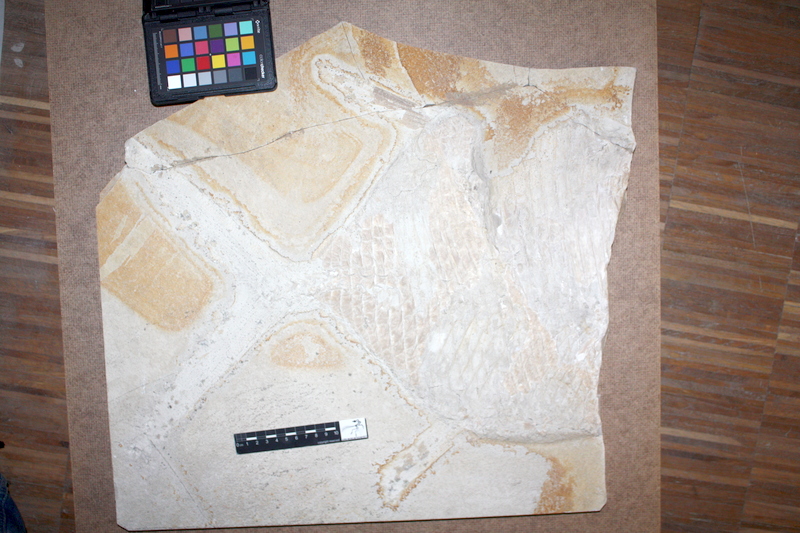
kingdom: Animalia
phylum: Chordata
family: Gyrodontidae
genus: Gyrodus
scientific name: Gyrodus circularis
